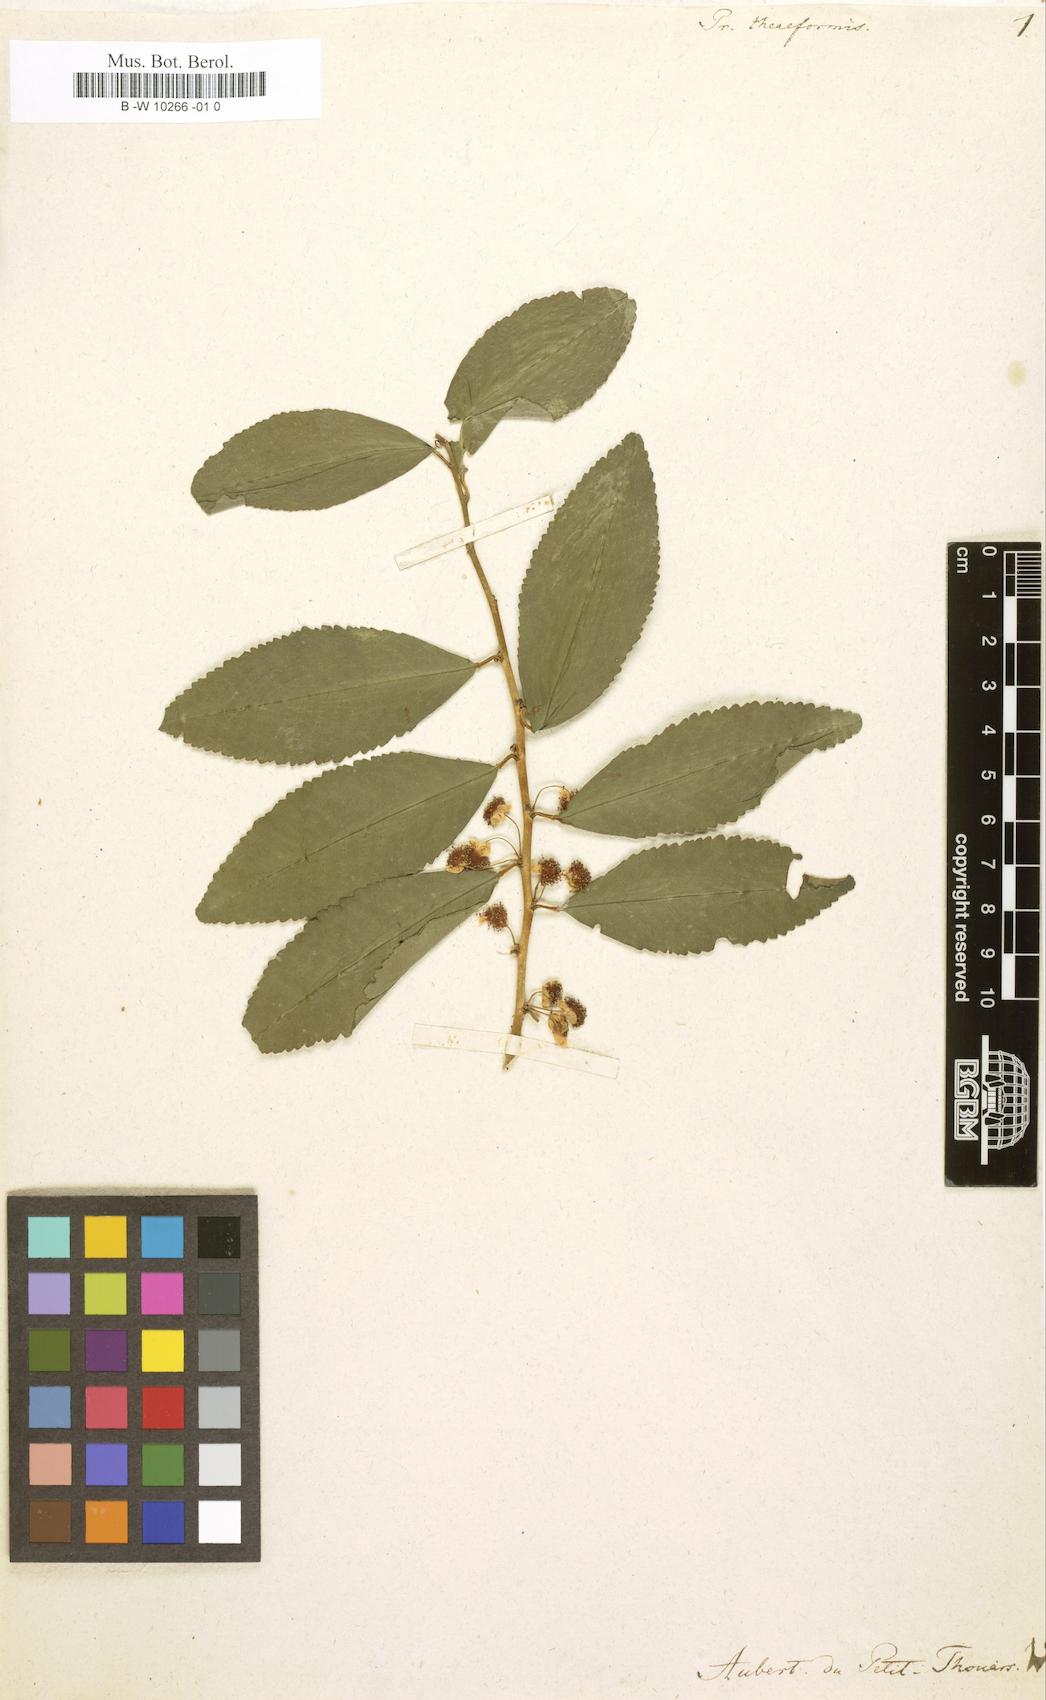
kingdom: Plantae
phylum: Tracheophyta
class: Magnoliopsida
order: Crossosomatales
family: Aphloiaceae
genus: Aphloia
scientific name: Aphloia theiformis
